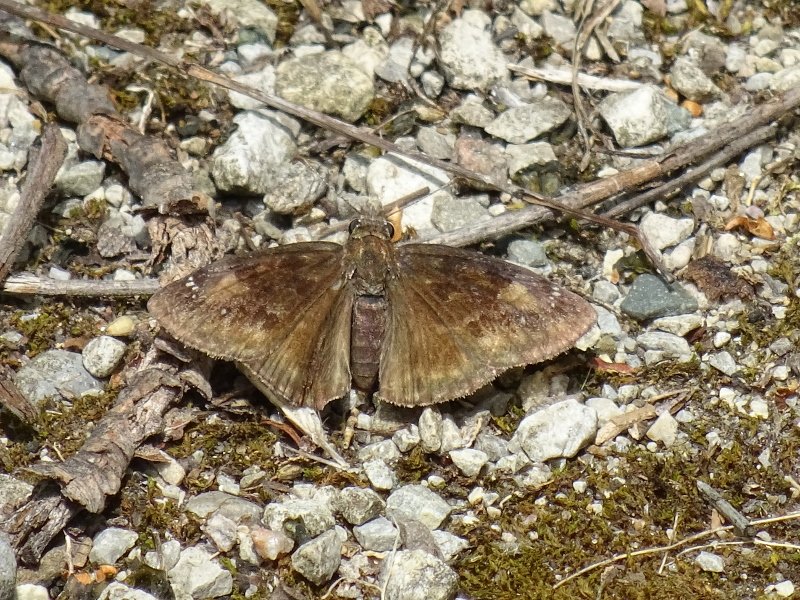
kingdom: Animalia
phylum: Arthropoda
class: Insecta
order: Lepidoptera
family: Hesperiidae
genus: Gesta
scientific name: Gesta
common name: Wild Indigo Duskywing
